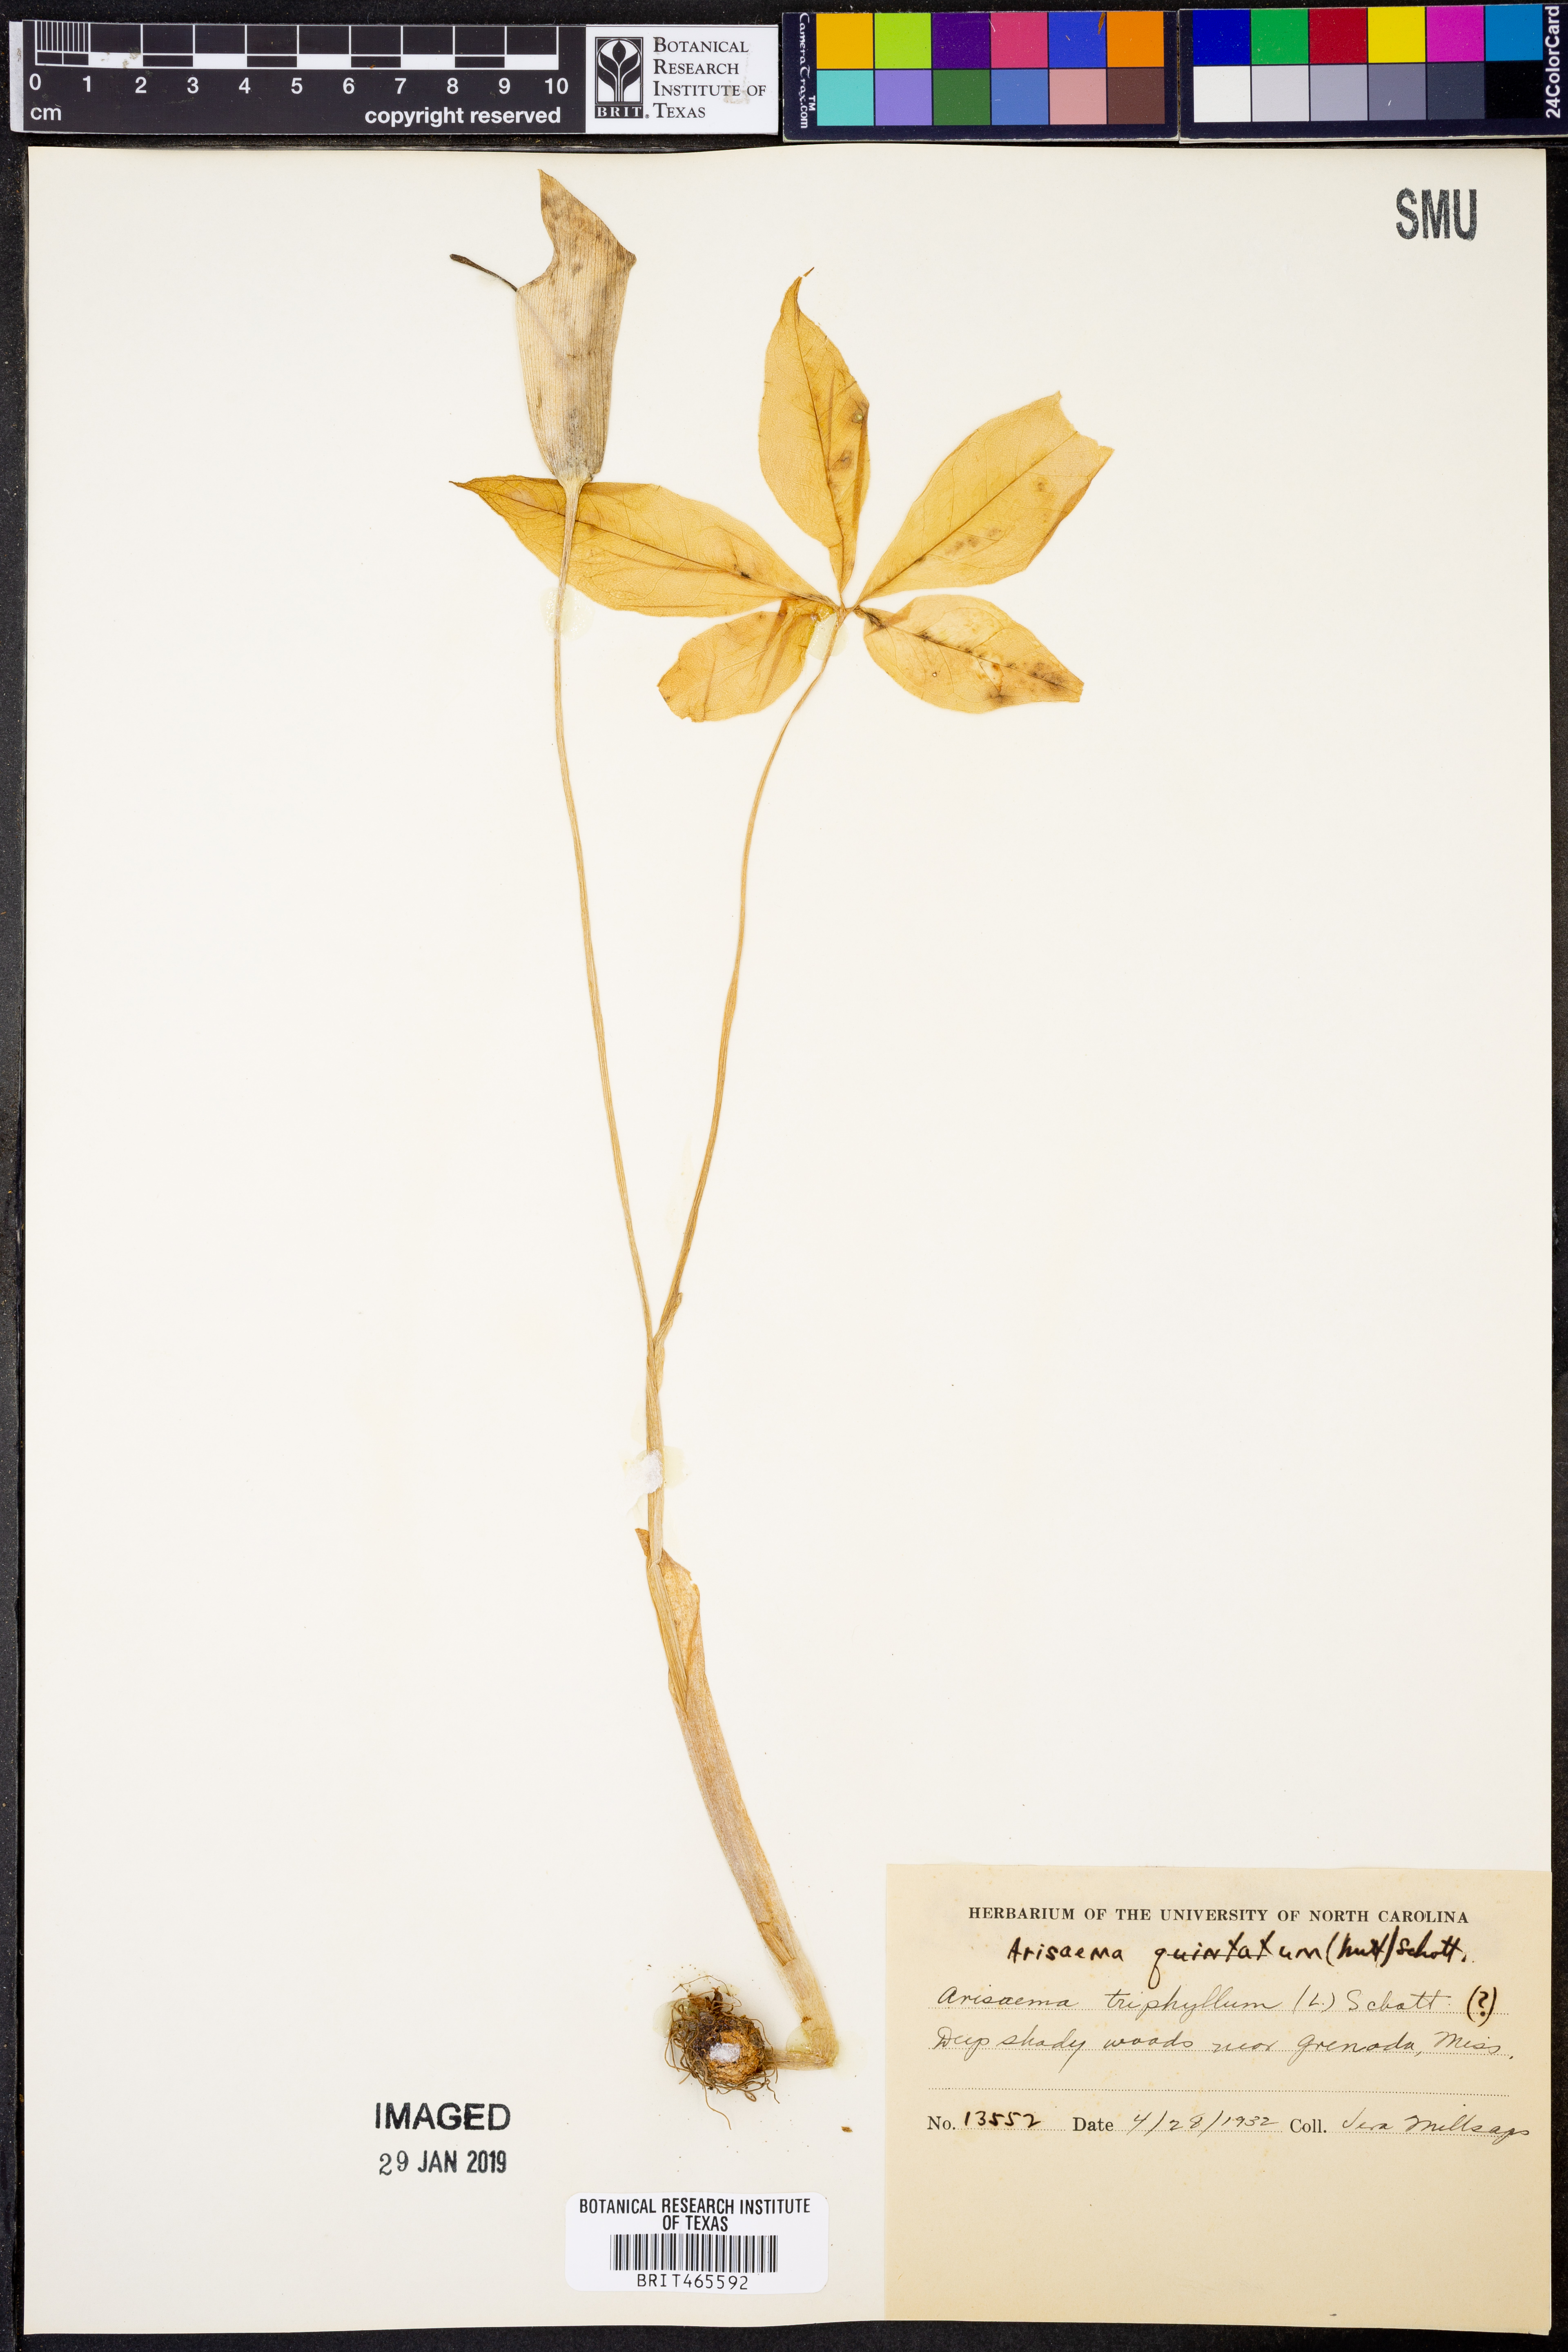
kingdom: Plantae
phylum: Tracheophyta
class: Liliopsida
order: Alismatales
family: Araceae
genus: Arisaema
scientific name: Arisaema quinatum
